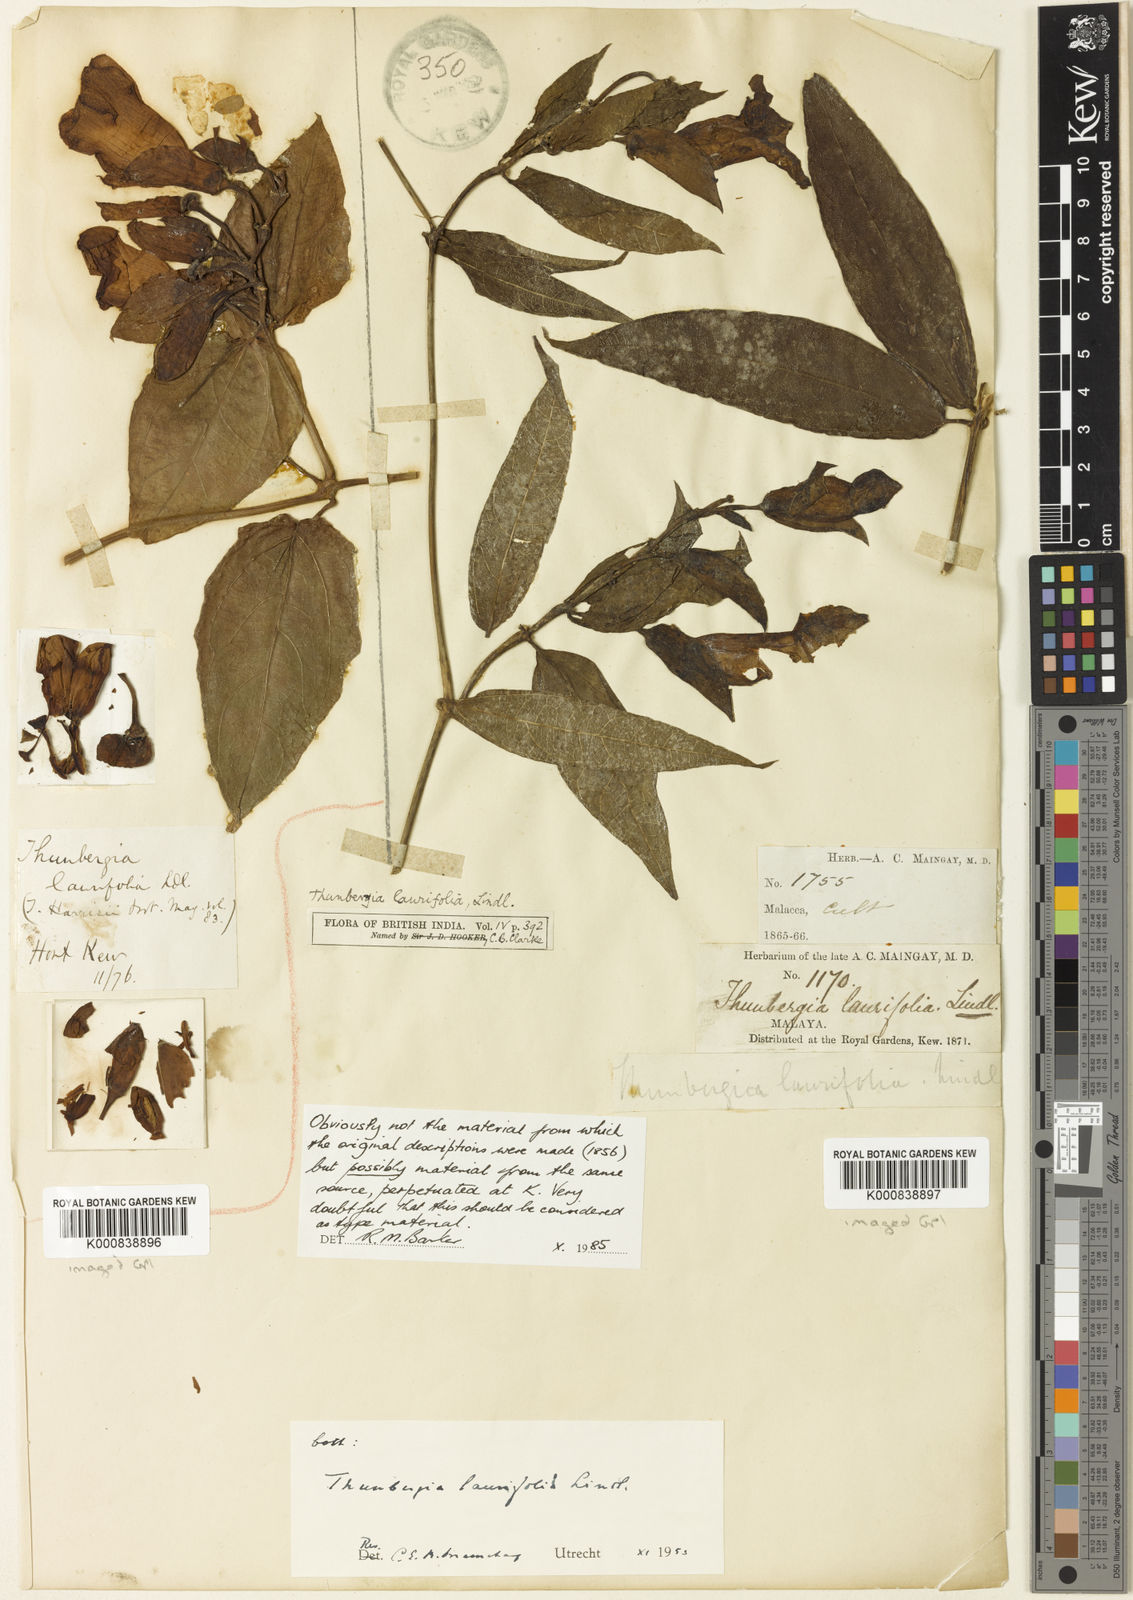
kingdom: Plantae
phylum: Tracheophyta
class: Magnoliopsida
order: Lamiales
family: Acanthaceae
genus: Thunbergia
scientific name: Thunbergia laurifolia
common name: Laurel-leaved thunbergia
